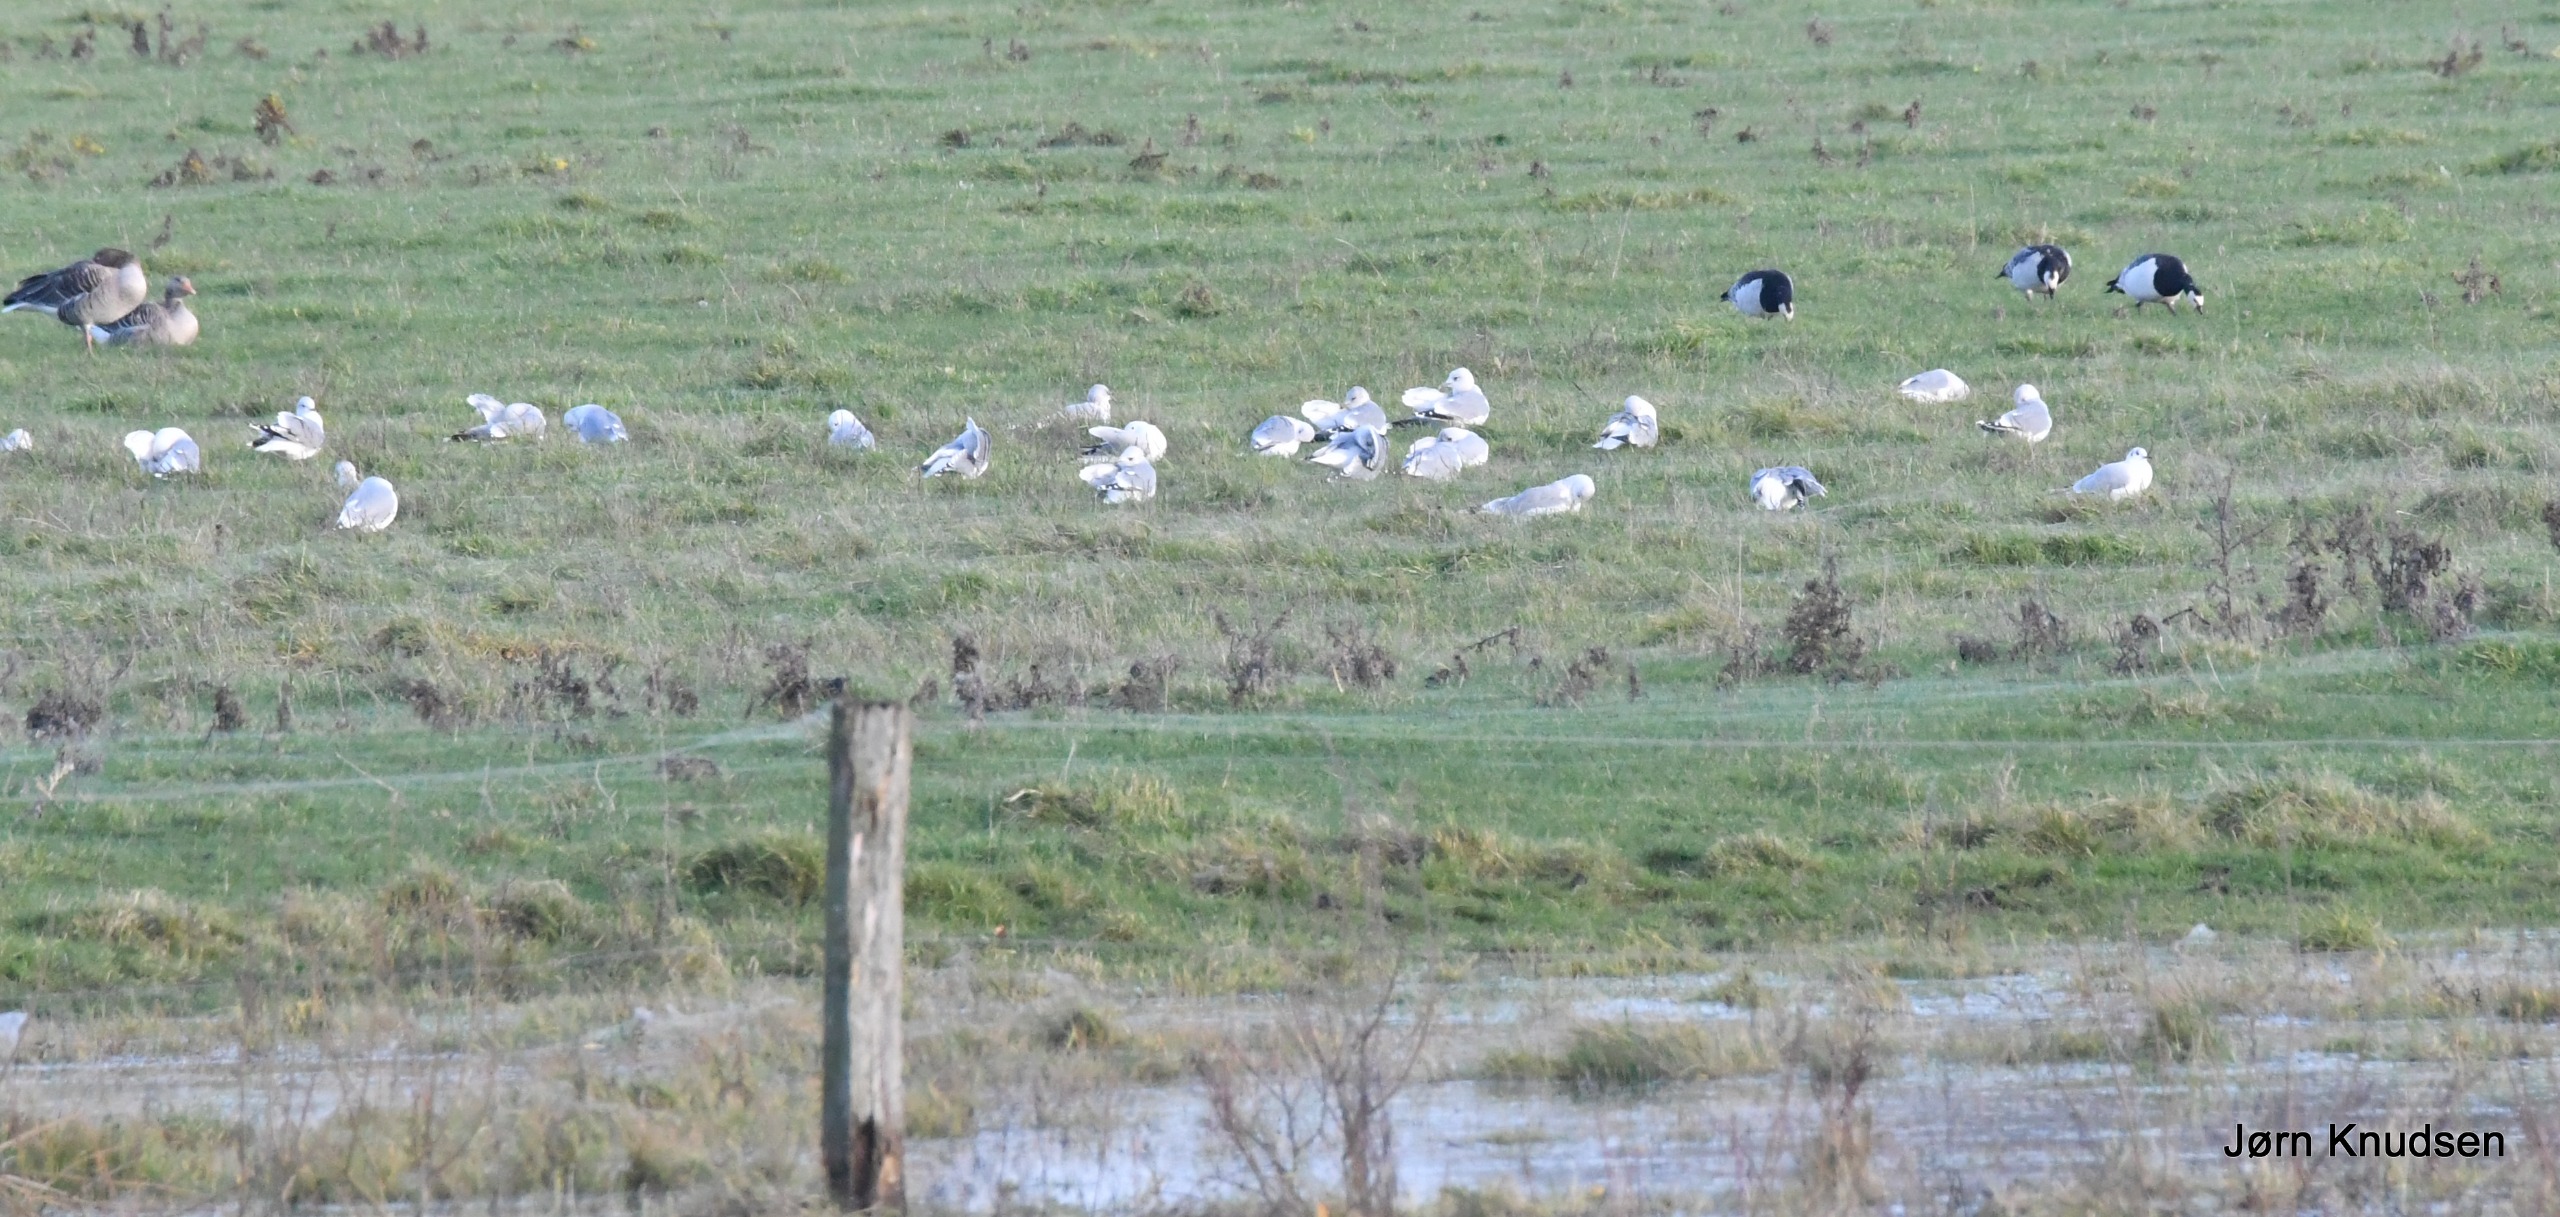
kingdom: Animalia
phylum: Chordata
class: Aves
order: Charadriiformes
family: Laridae
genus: Chroicocephalus
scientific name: Chroicocephalus ridibundus
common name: Hættemåge
